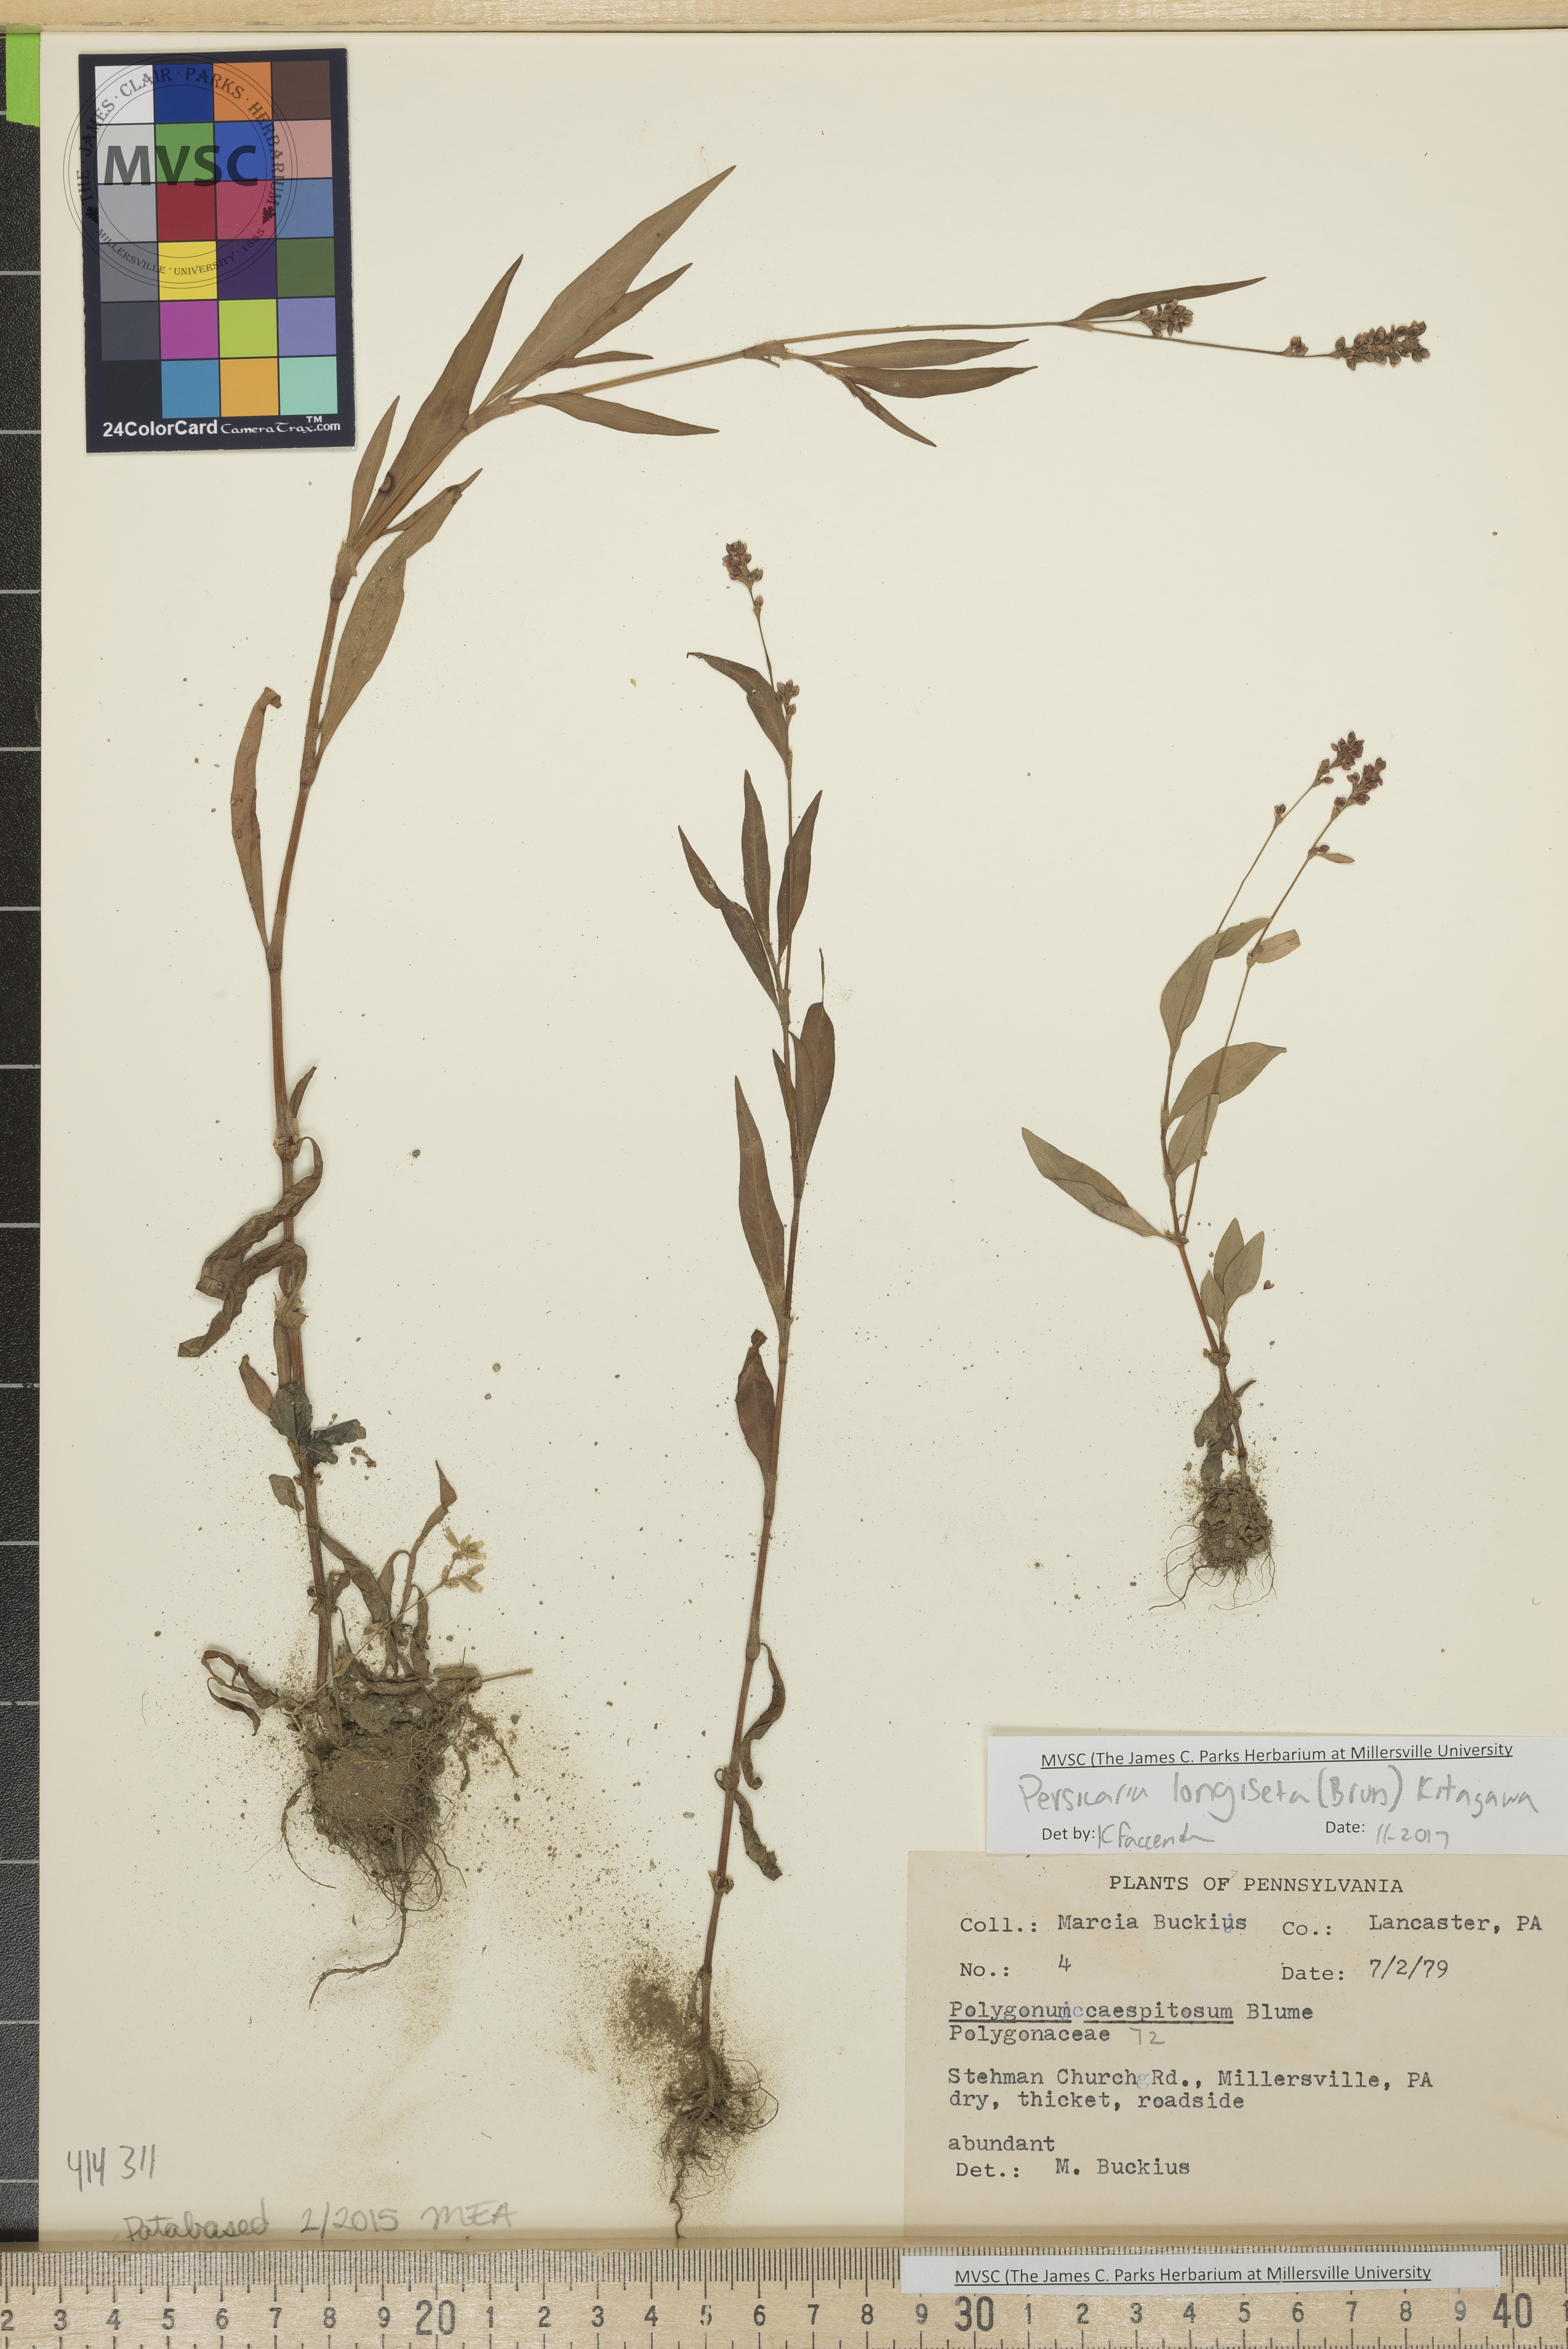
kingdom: Plantae
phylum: Tracheophyta
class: Magnoliopsida
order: Caryophyllales
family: Polygonaceae
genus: Persicaria
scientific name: Persicaria longiseta
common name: Low smartweed
